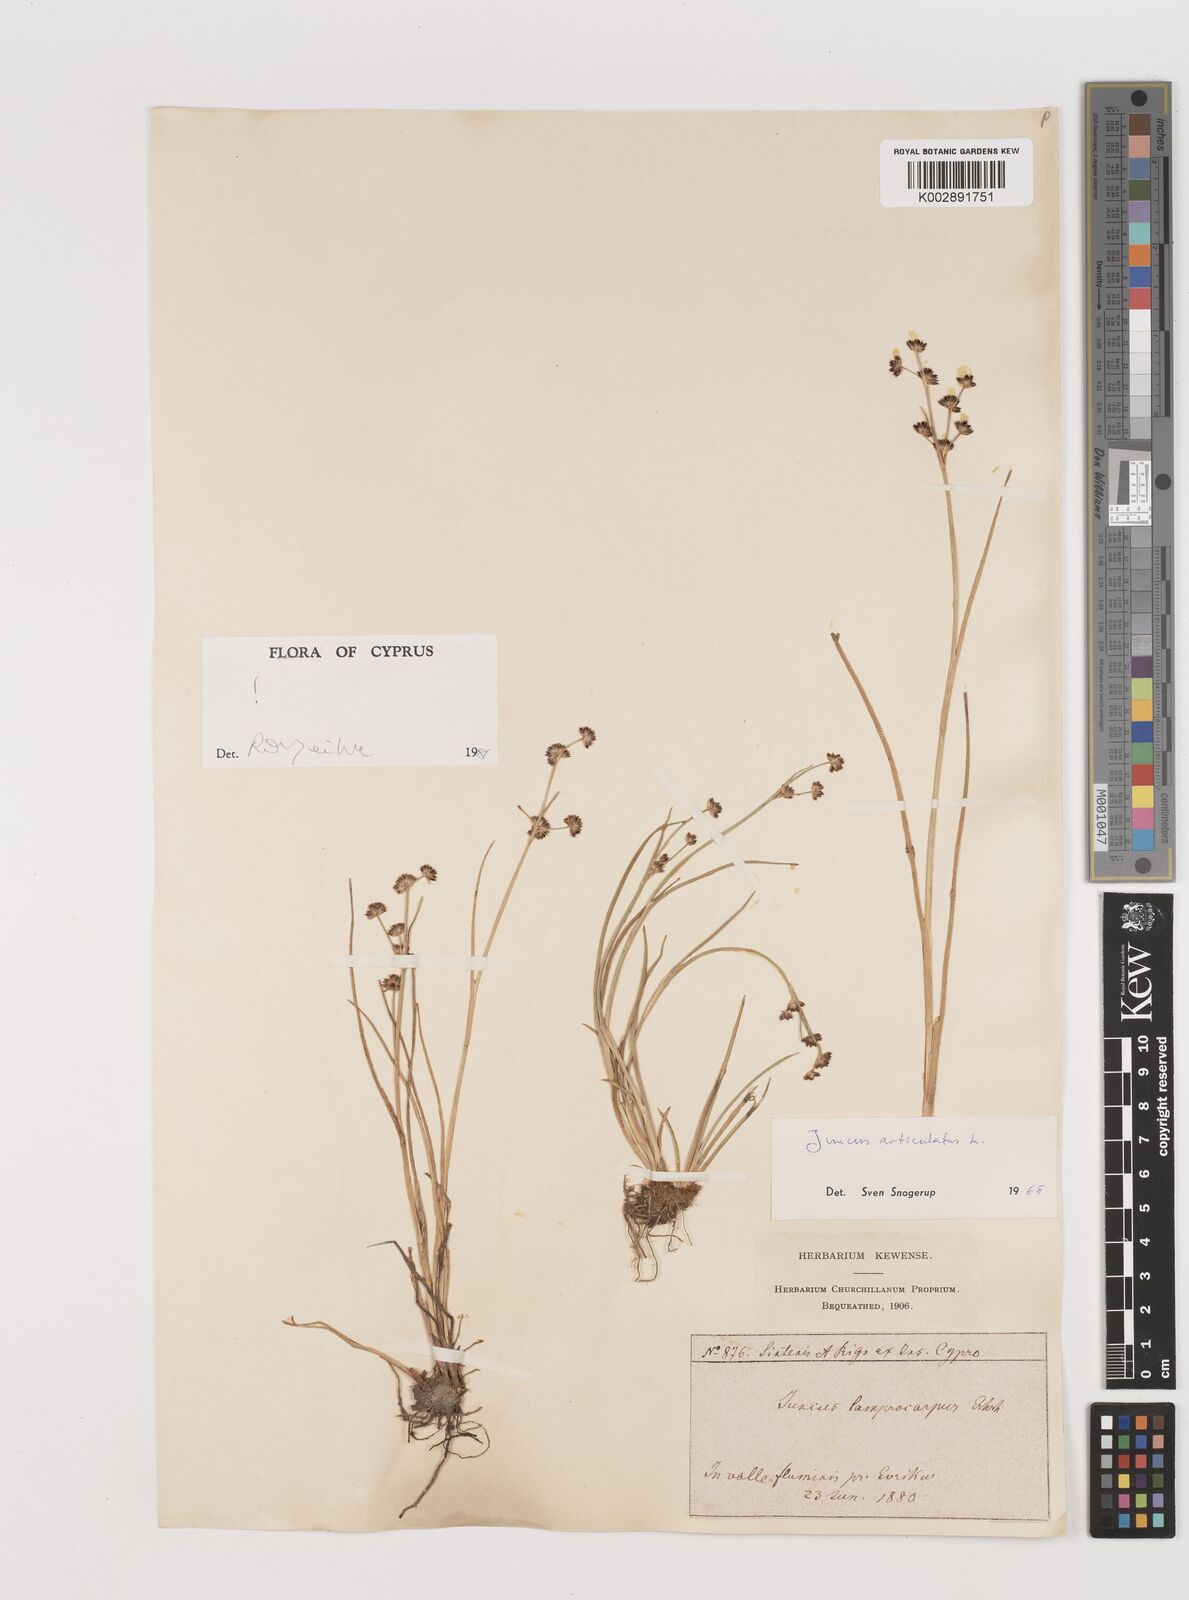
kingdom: Plantae
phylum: Tracheophyta
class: Liliopsida
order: Poales
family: Juncaceae
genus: Juncus
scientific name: Juncus articulatus
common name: Jointed rush
